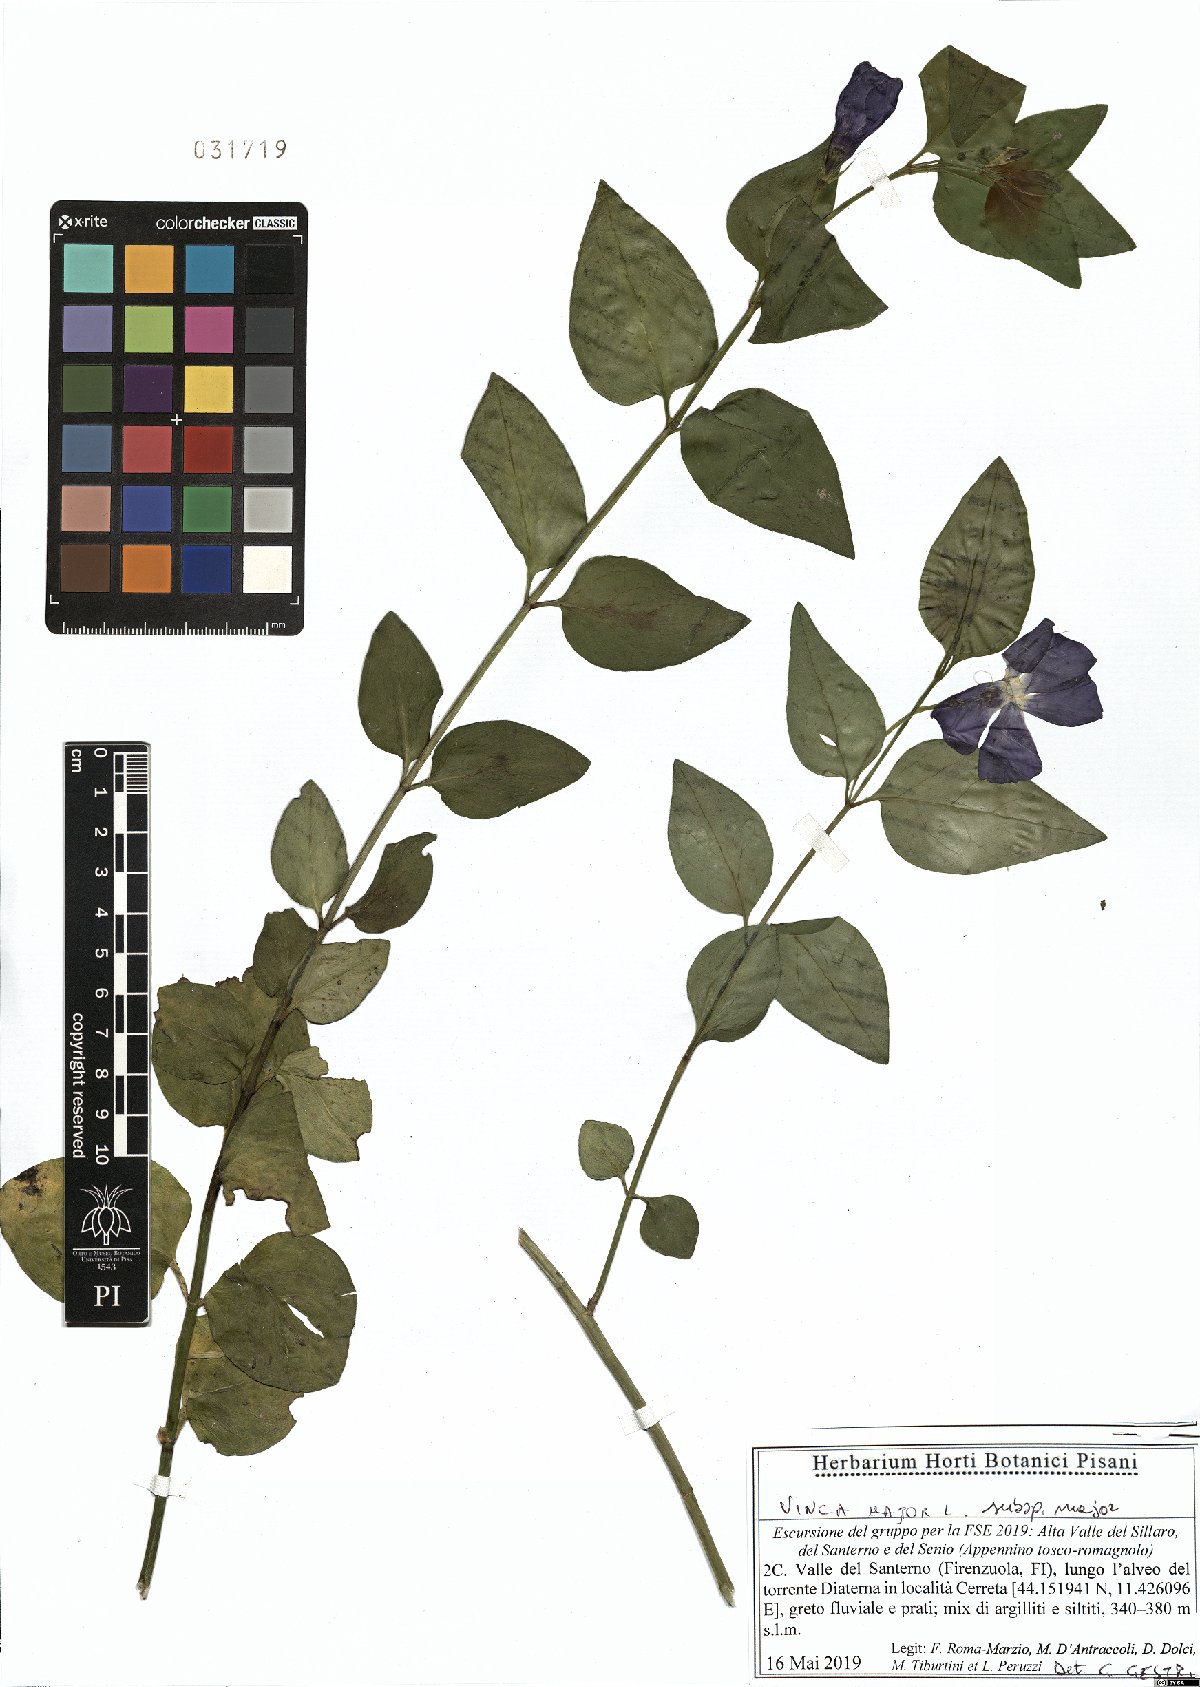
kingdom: Plantae
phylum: Tracheophyta
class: Magnoliopsida
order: Gentianales
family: Apocynaceae
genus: Vinca
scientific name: Vinca major
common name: Greater periwinkle
